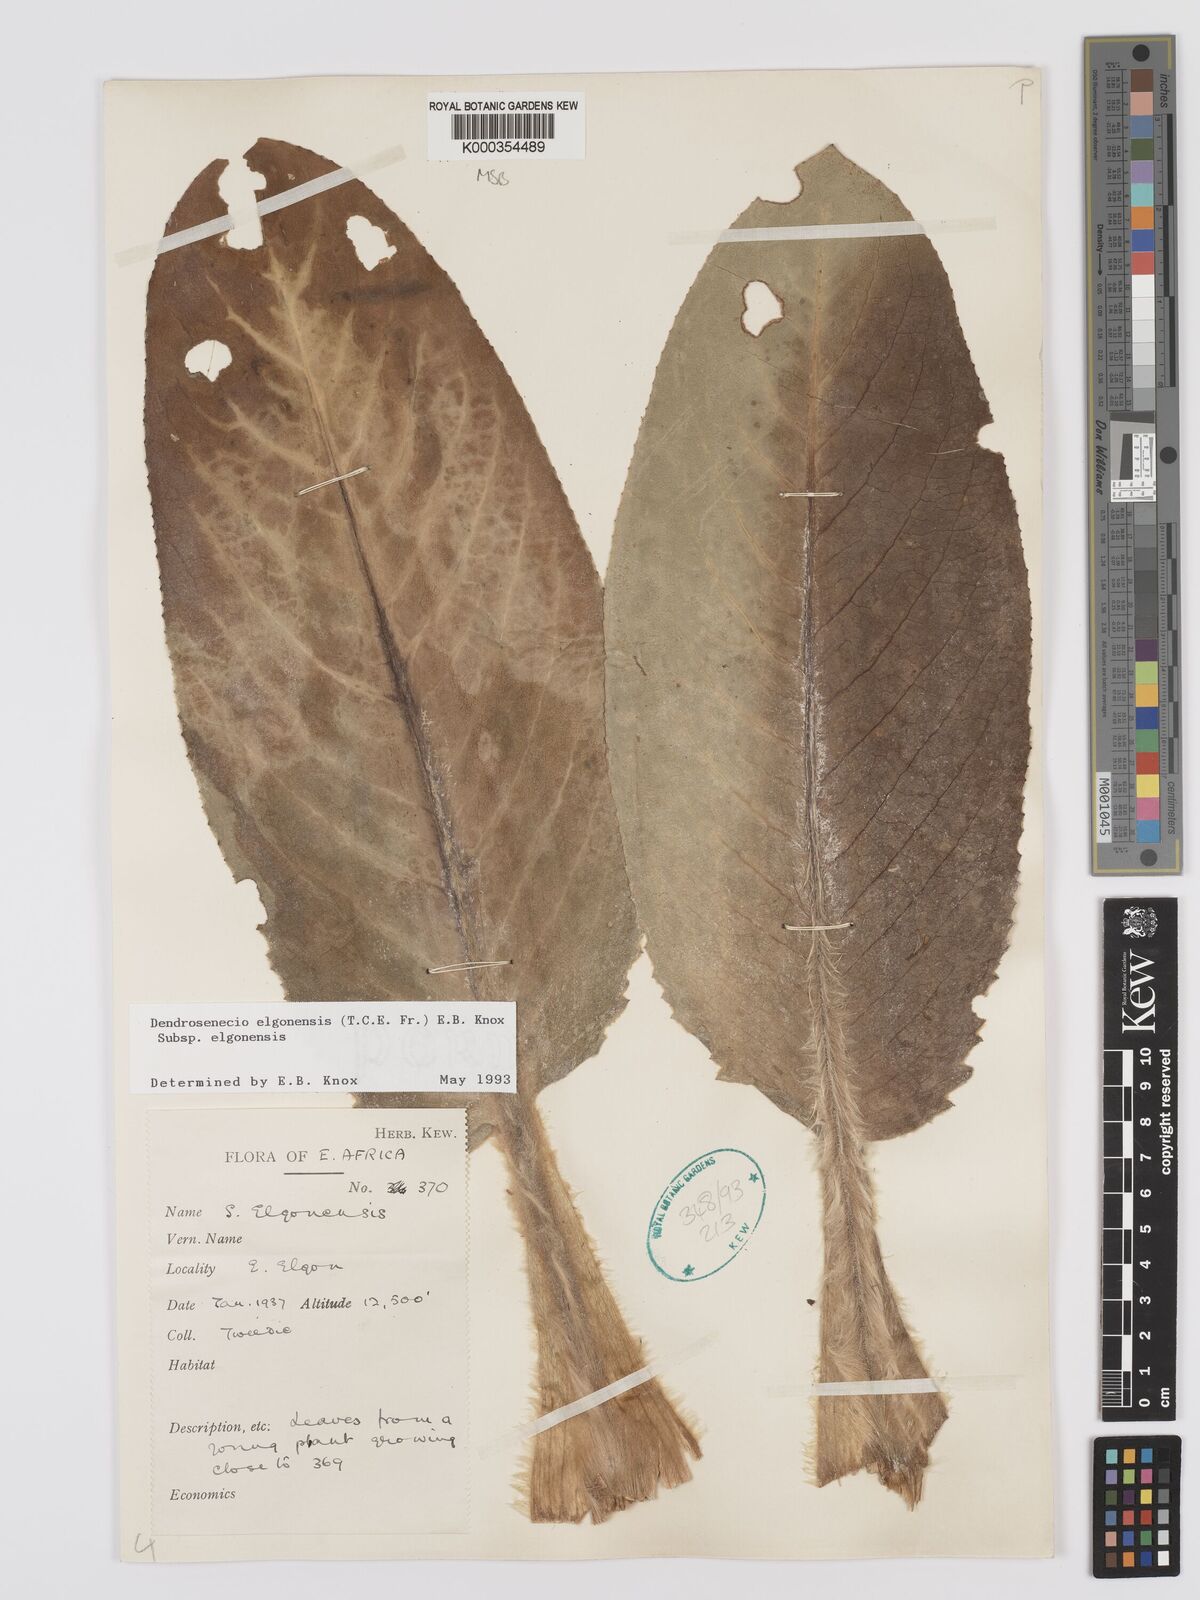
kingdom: Plantae
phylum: Tracheophyta
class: Magnoliopsida
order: Asterales
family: Asteraceae
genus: Dendrosenecio
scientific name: Dendrosenecio elgonensis
